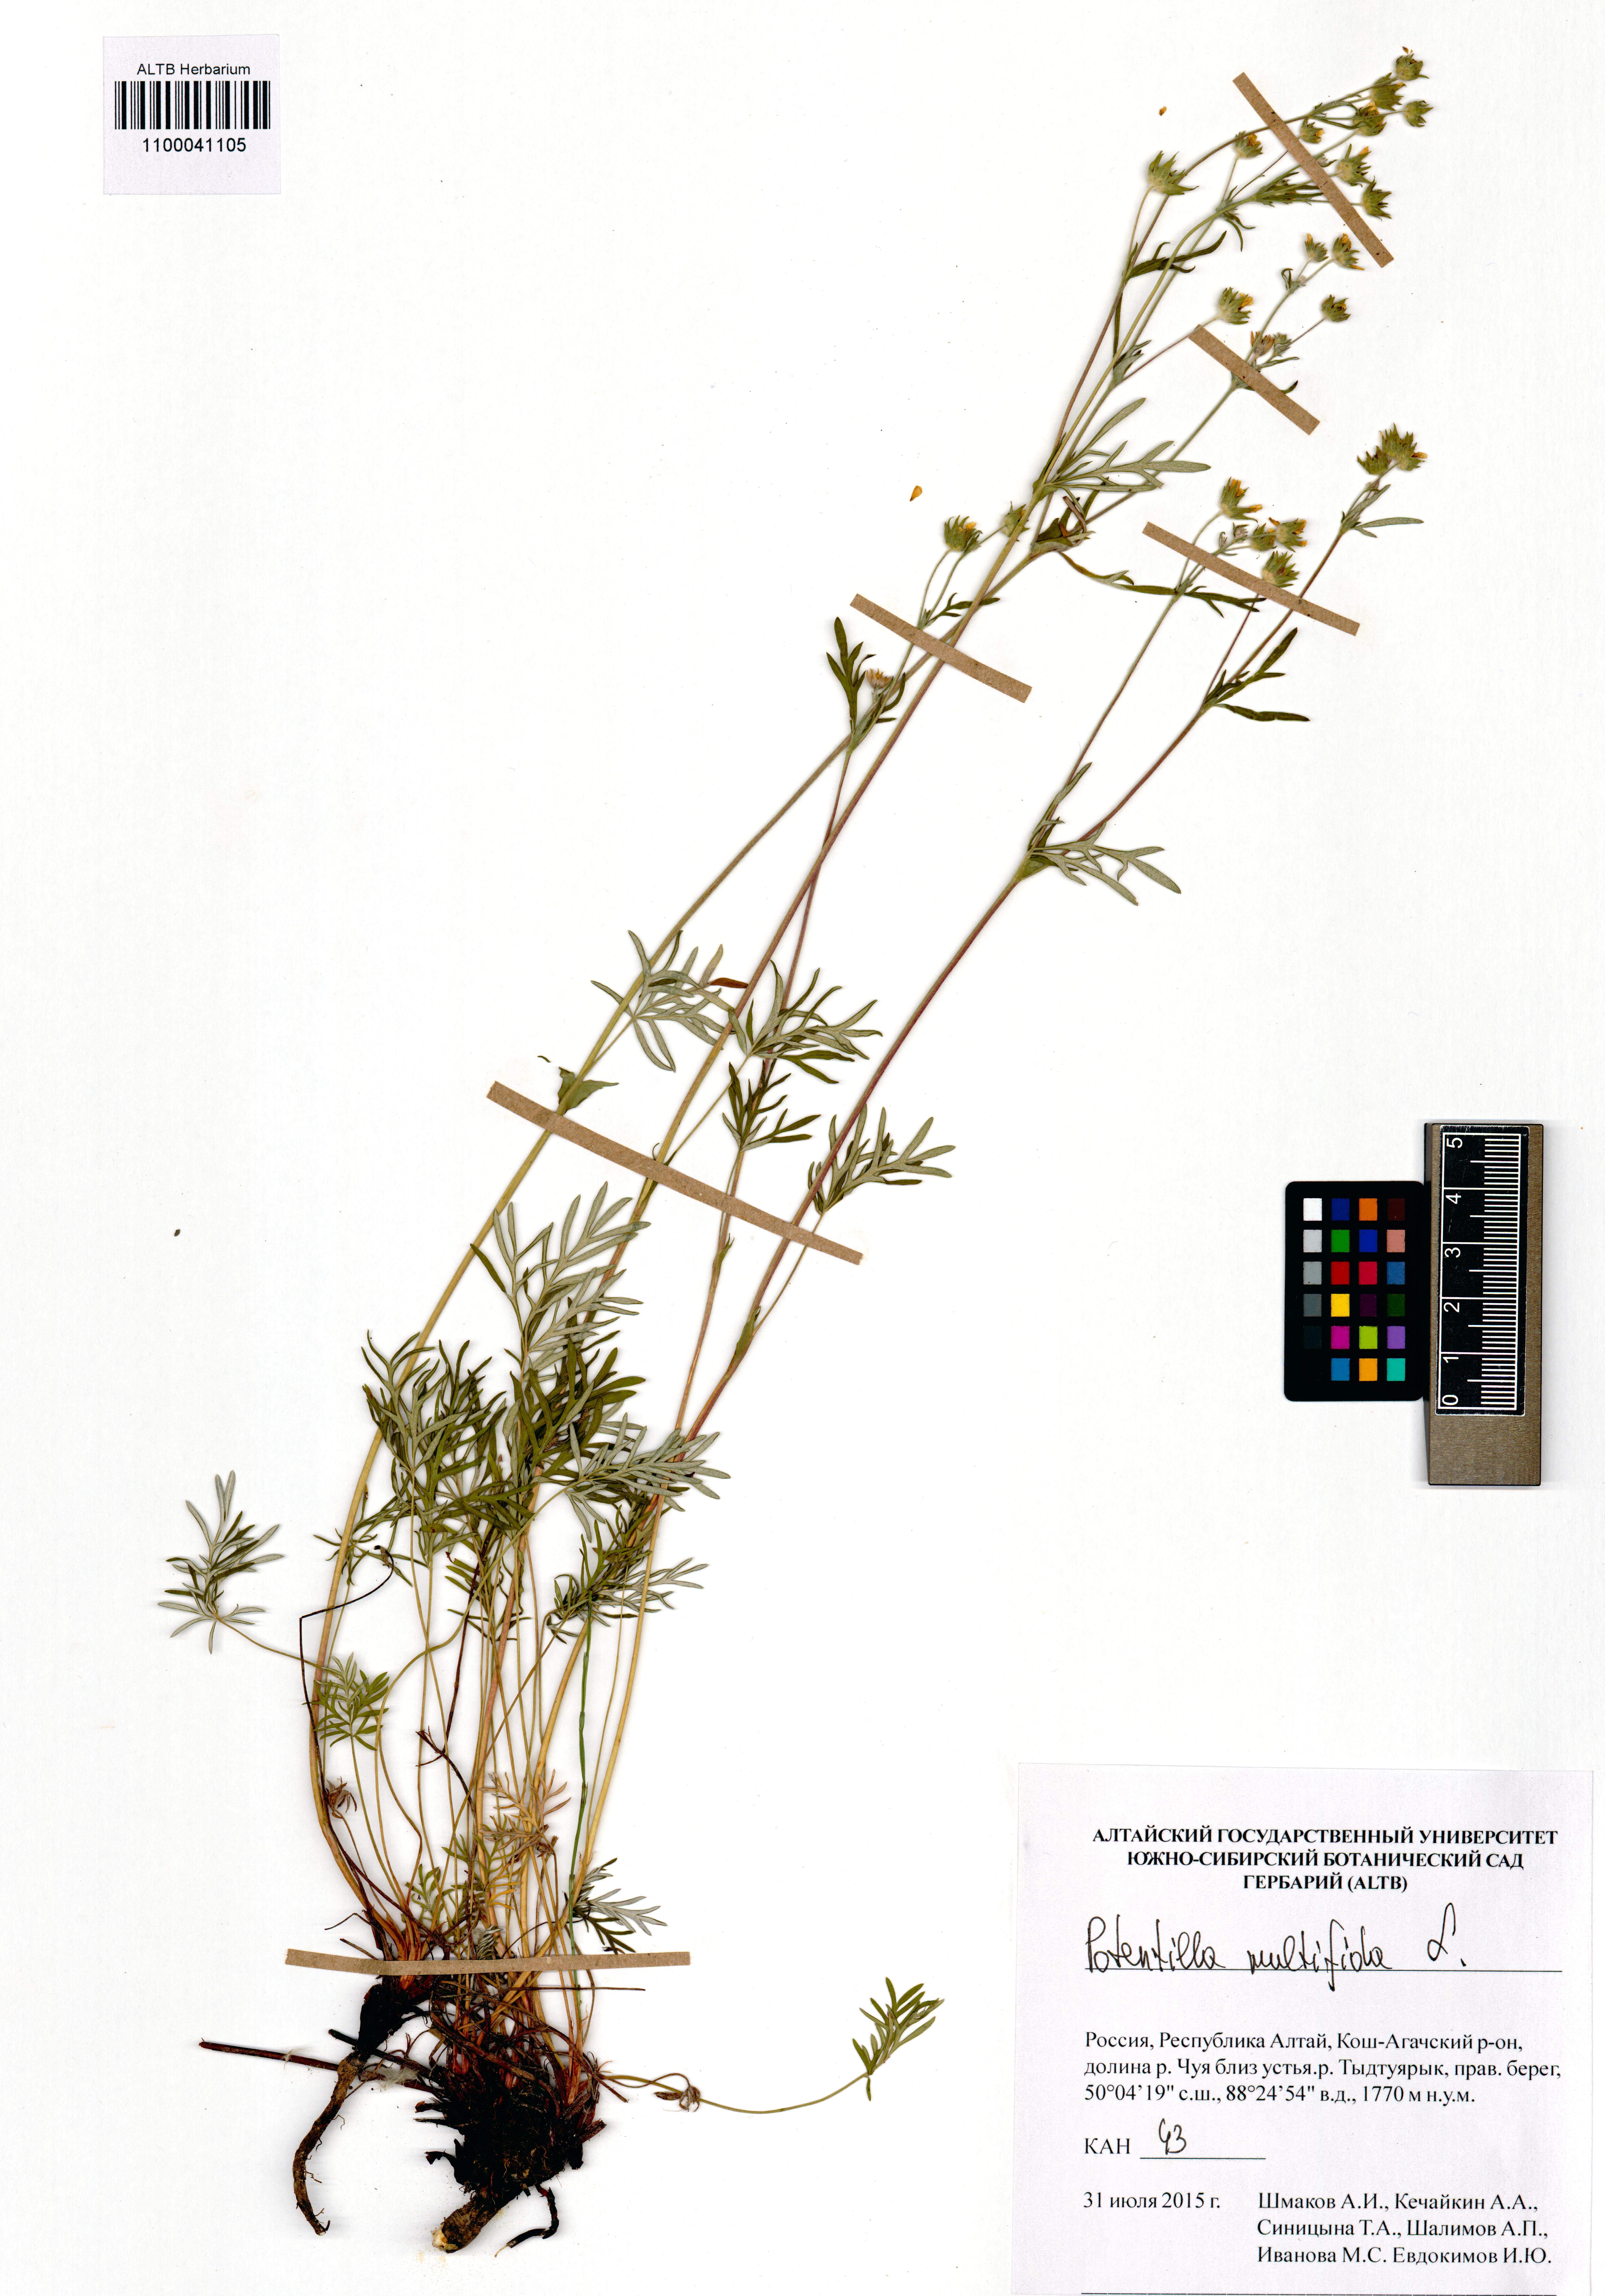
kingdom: Plantae
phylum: Tracheophyta
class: Magnoliopsida
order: Rosales
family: Rosaceae
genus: Potentilla
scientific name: Potentilla multifida
